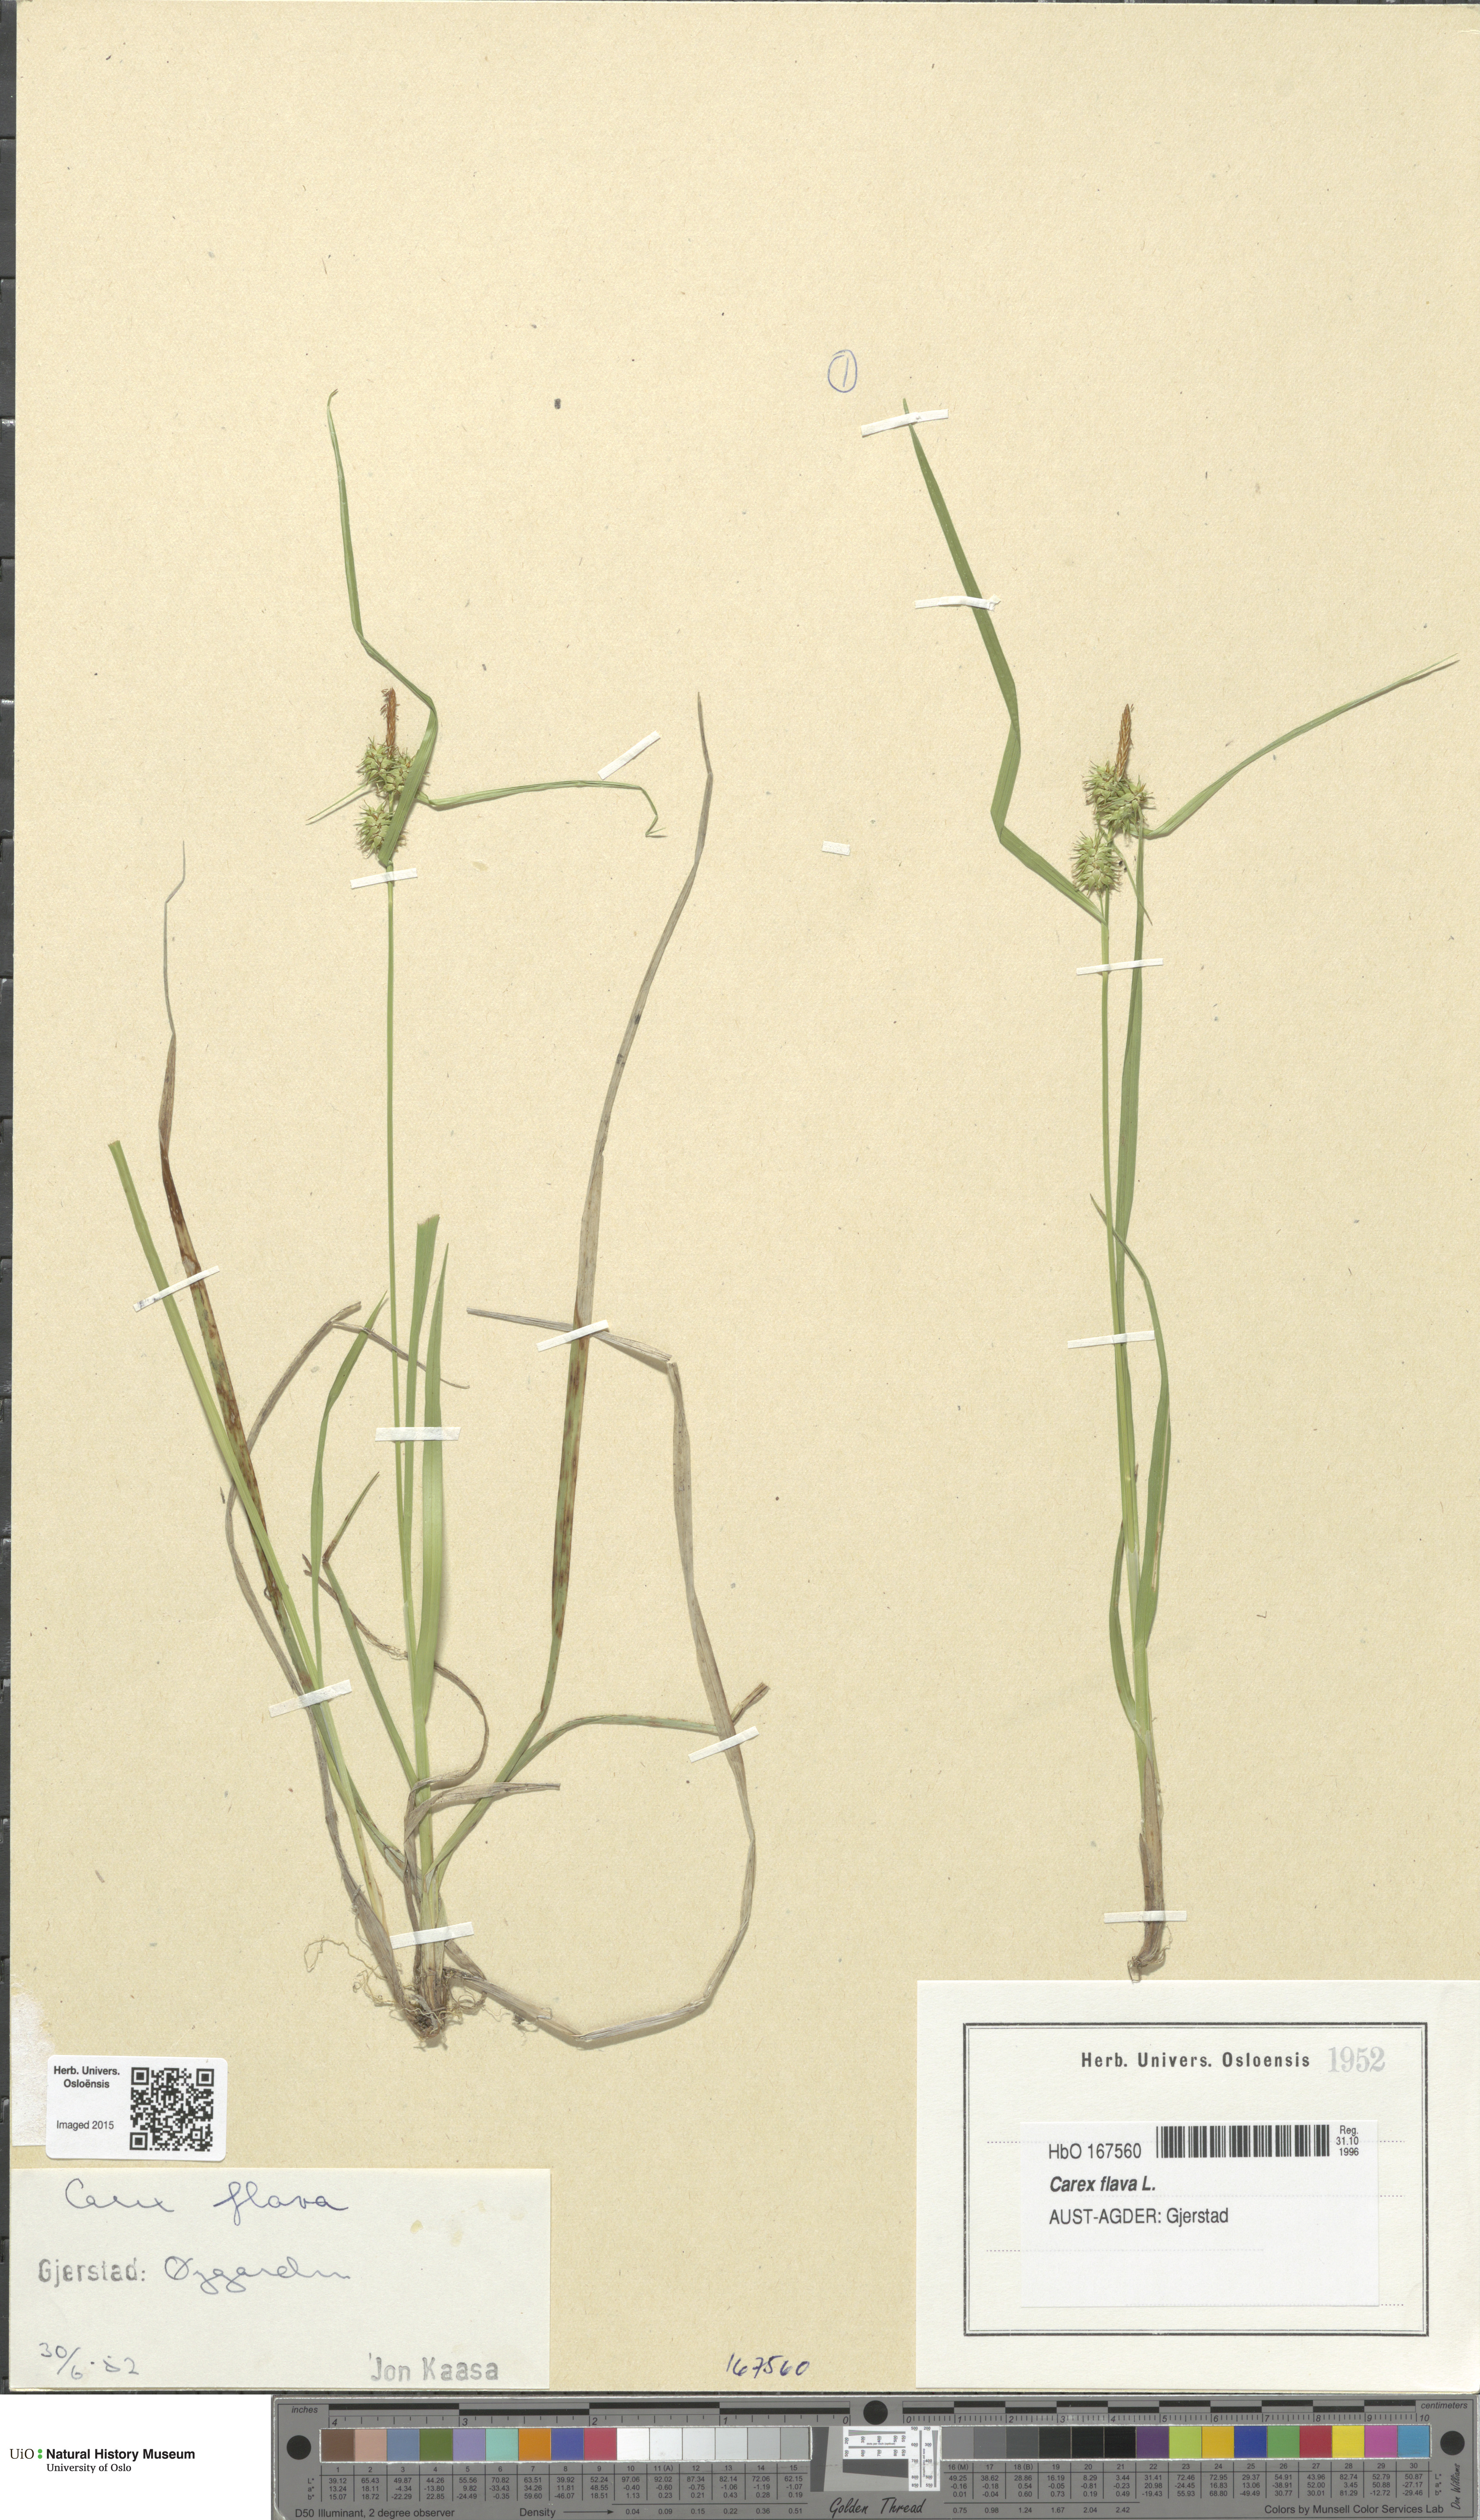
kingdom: Plantae
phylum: Tracheophyta
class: Liliopsida
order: Poales
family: Cyperaceae
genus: Carex
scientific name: Carex flava
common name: Large yellow-sedge
